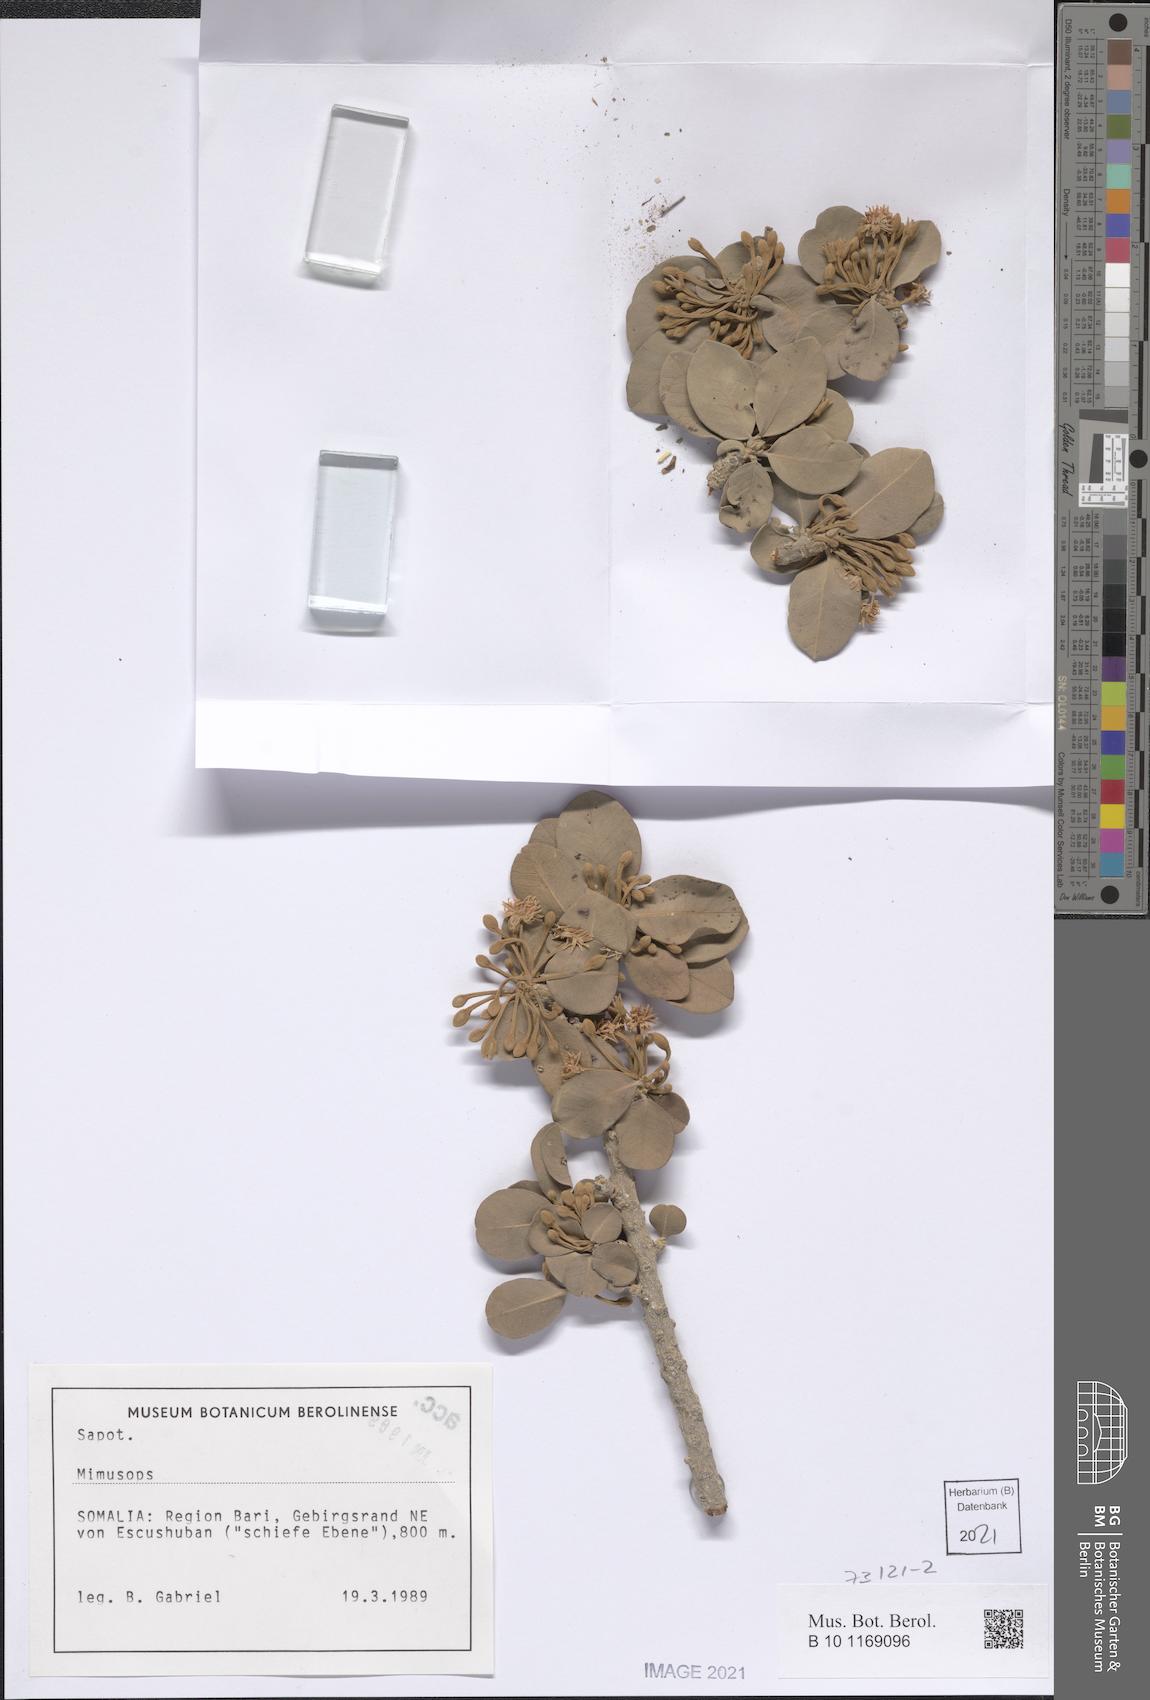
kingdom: Plantae
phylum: Tracheophyta
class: Magnoliopsida
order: Ericales
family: Sapotaceae
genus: Mimusops
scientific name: Mimusops angel
